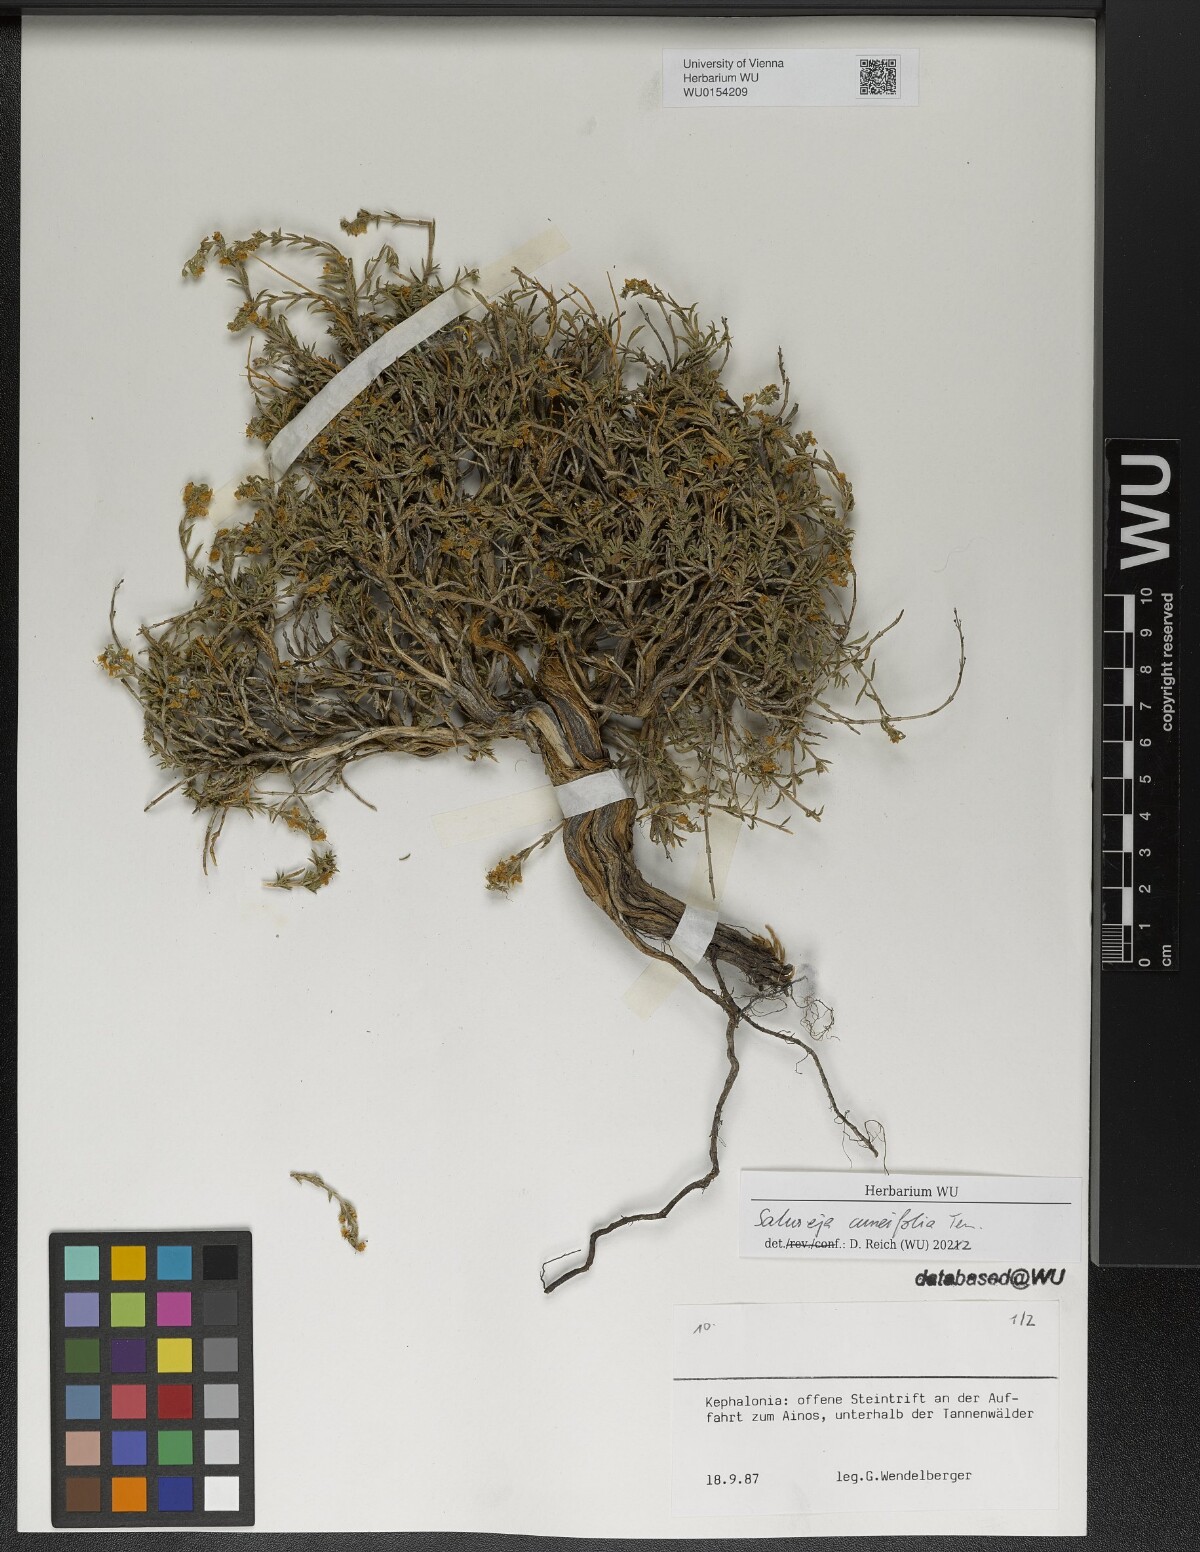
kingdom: Plantae
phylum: Tracheophyta
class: Magnoliopsida
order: Lamiales
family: Lamiaceae
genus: Satureja
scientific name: Satureja cuneifolia
